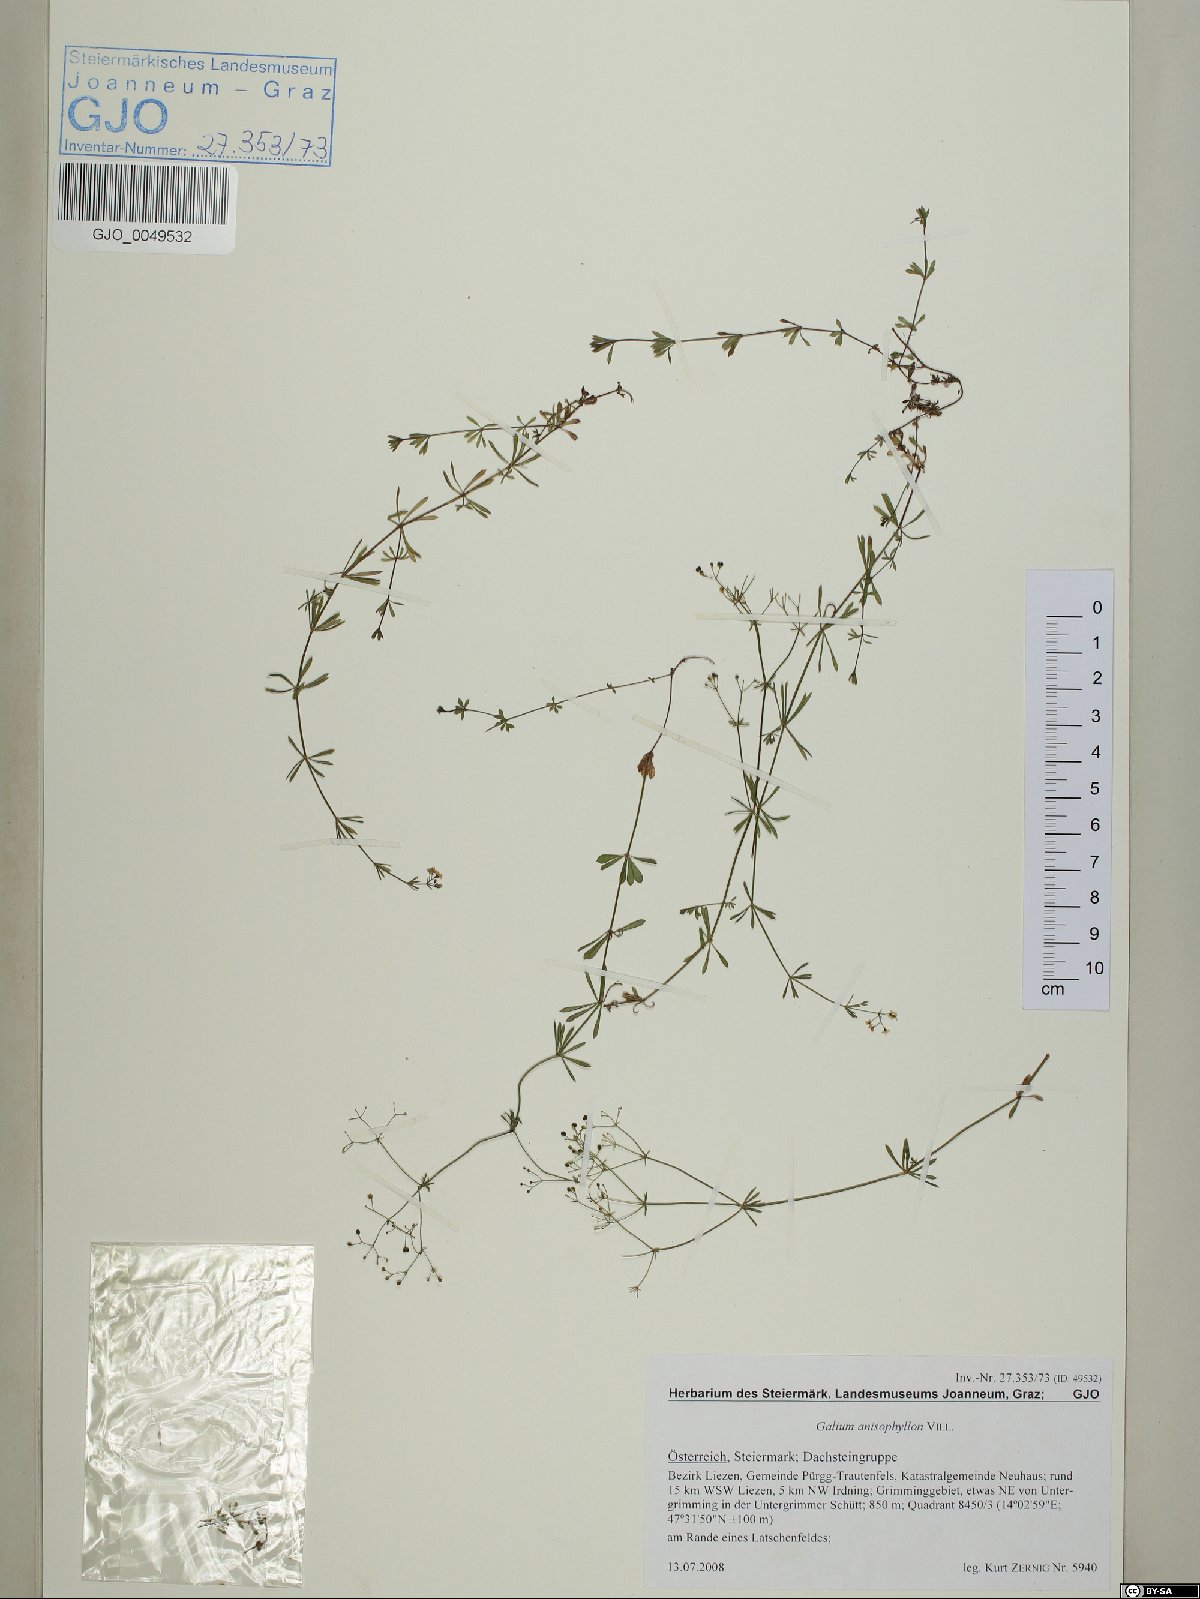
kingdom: Plantae
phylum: Tracheophyta
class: Magnoliopsida
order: Gentianales
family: Rubiaceae
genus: Galium
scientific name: Galium anisophyllon
